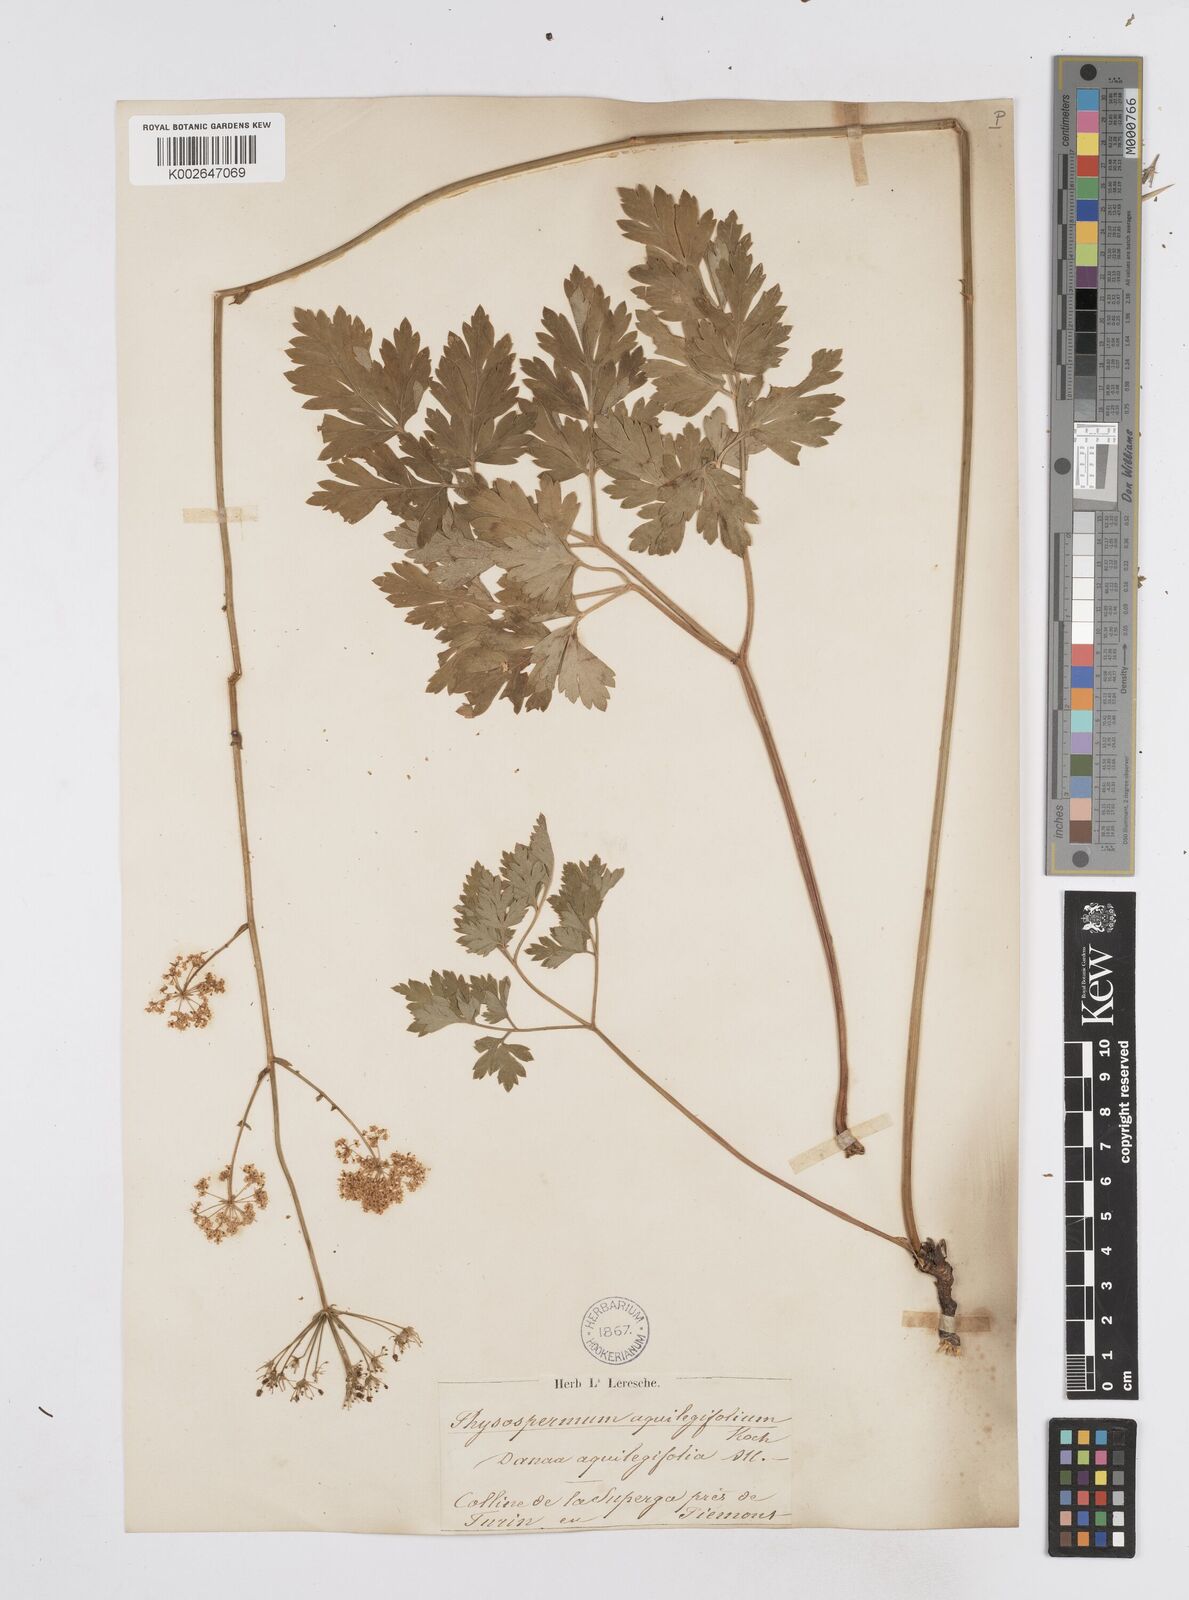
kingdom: Plantae
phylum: Tracheophyta
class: Magnoliopsida
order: Apiales
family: Apiaceae
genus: Physospermum
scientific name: Physospermum cornubiense
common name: Bladderseed
